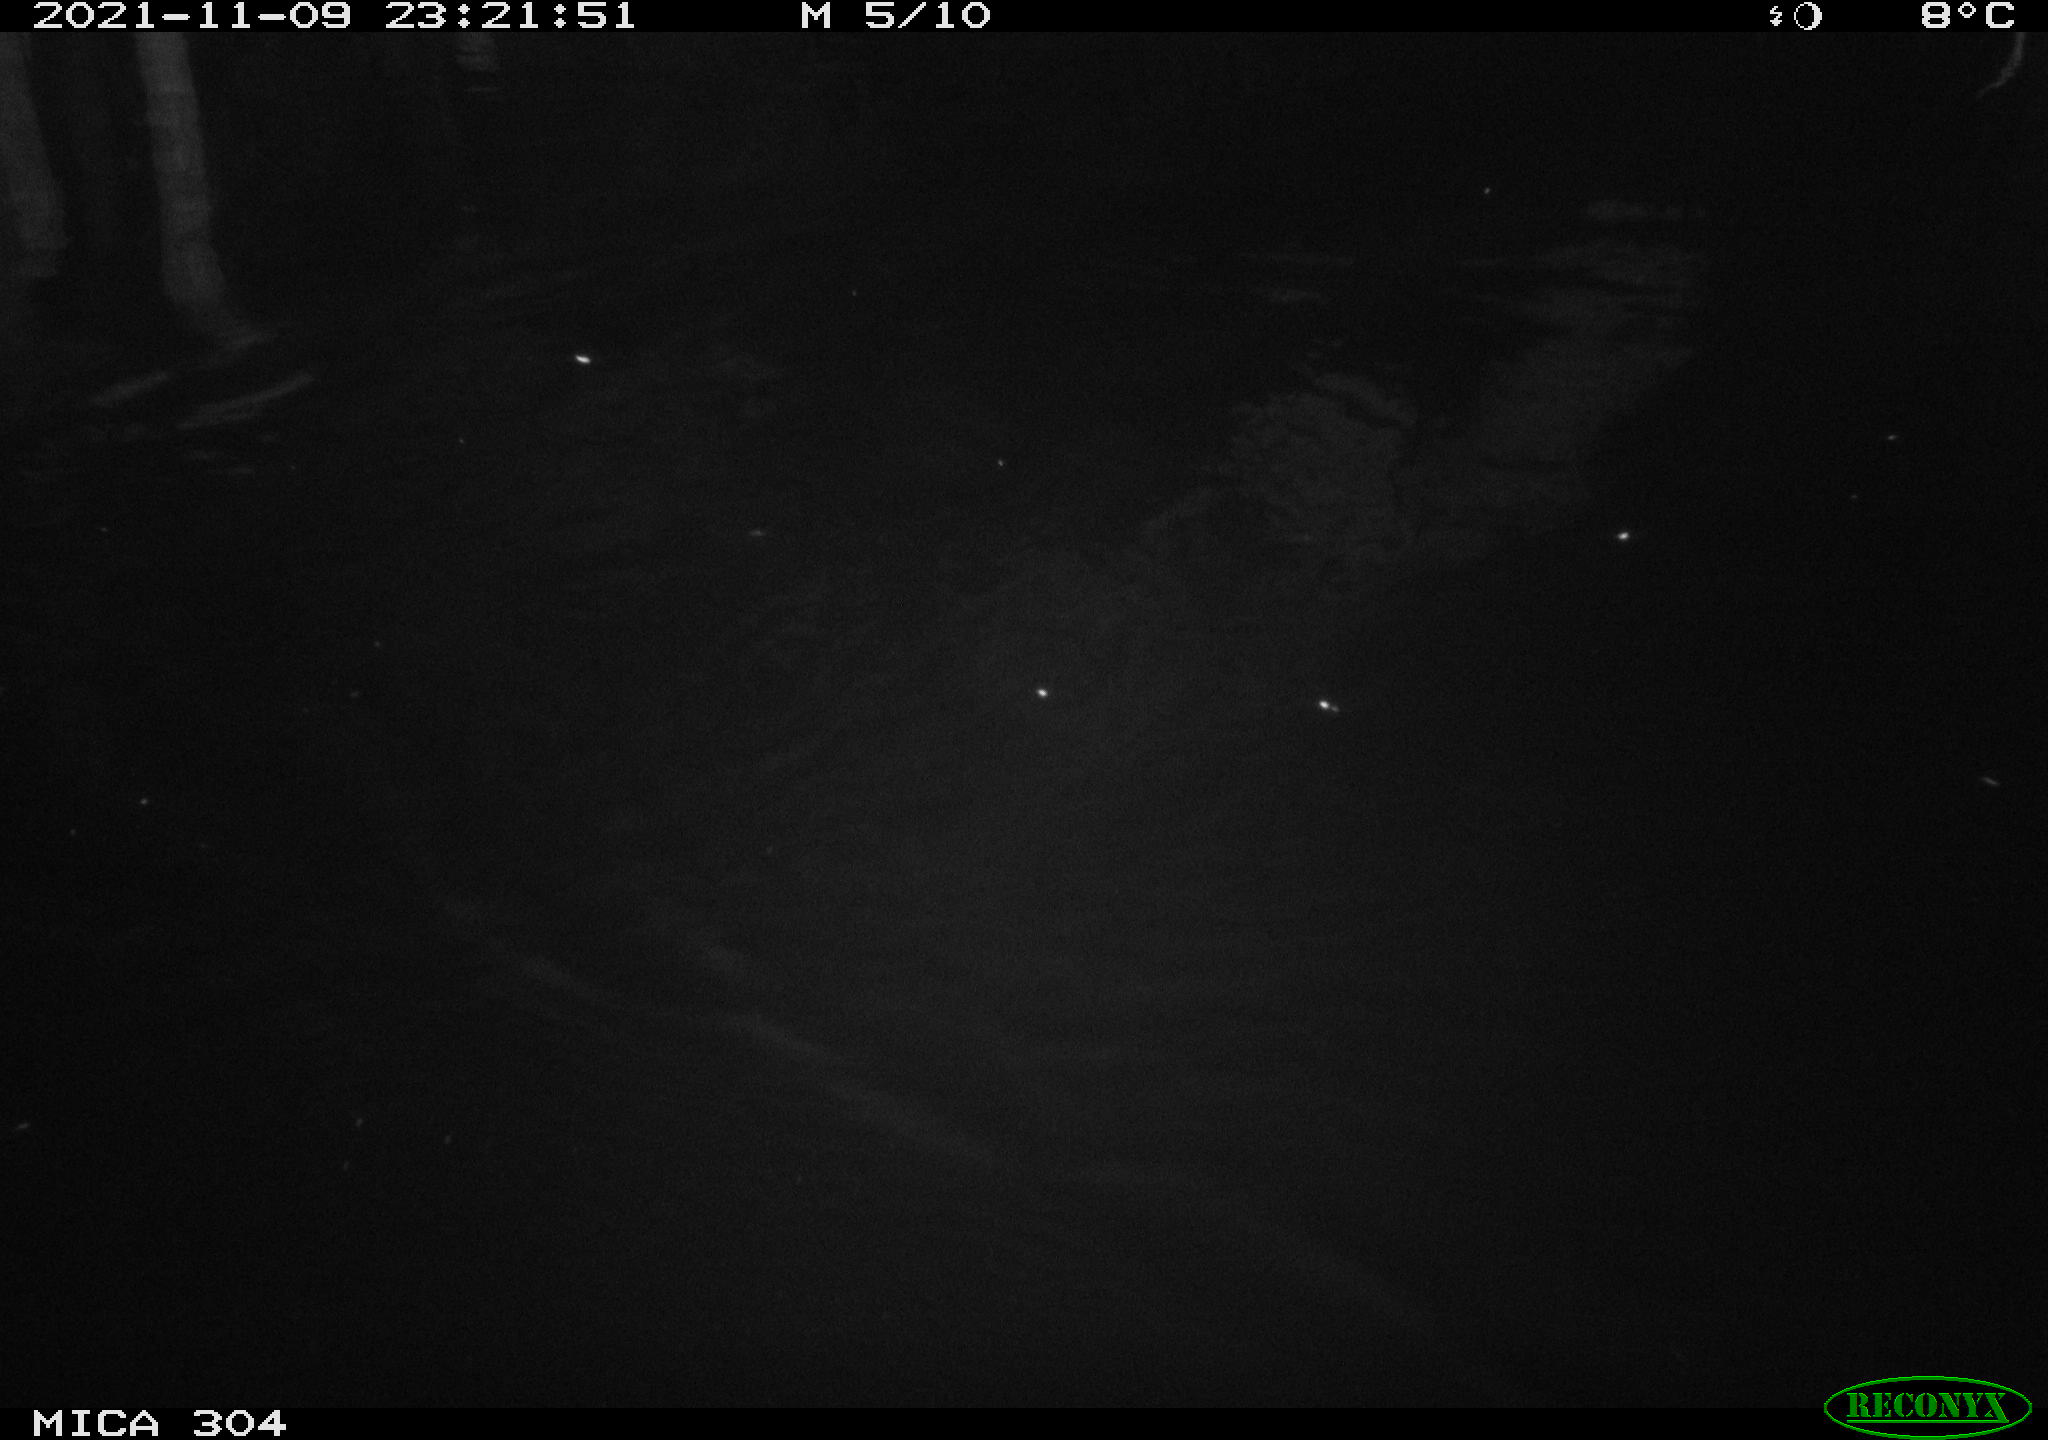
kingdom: Animalia
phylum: Chordata
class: Mammalia
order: Rodentia
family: Muridae
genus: Rattus
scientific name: Rattus norvegicus
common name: Brown rat
